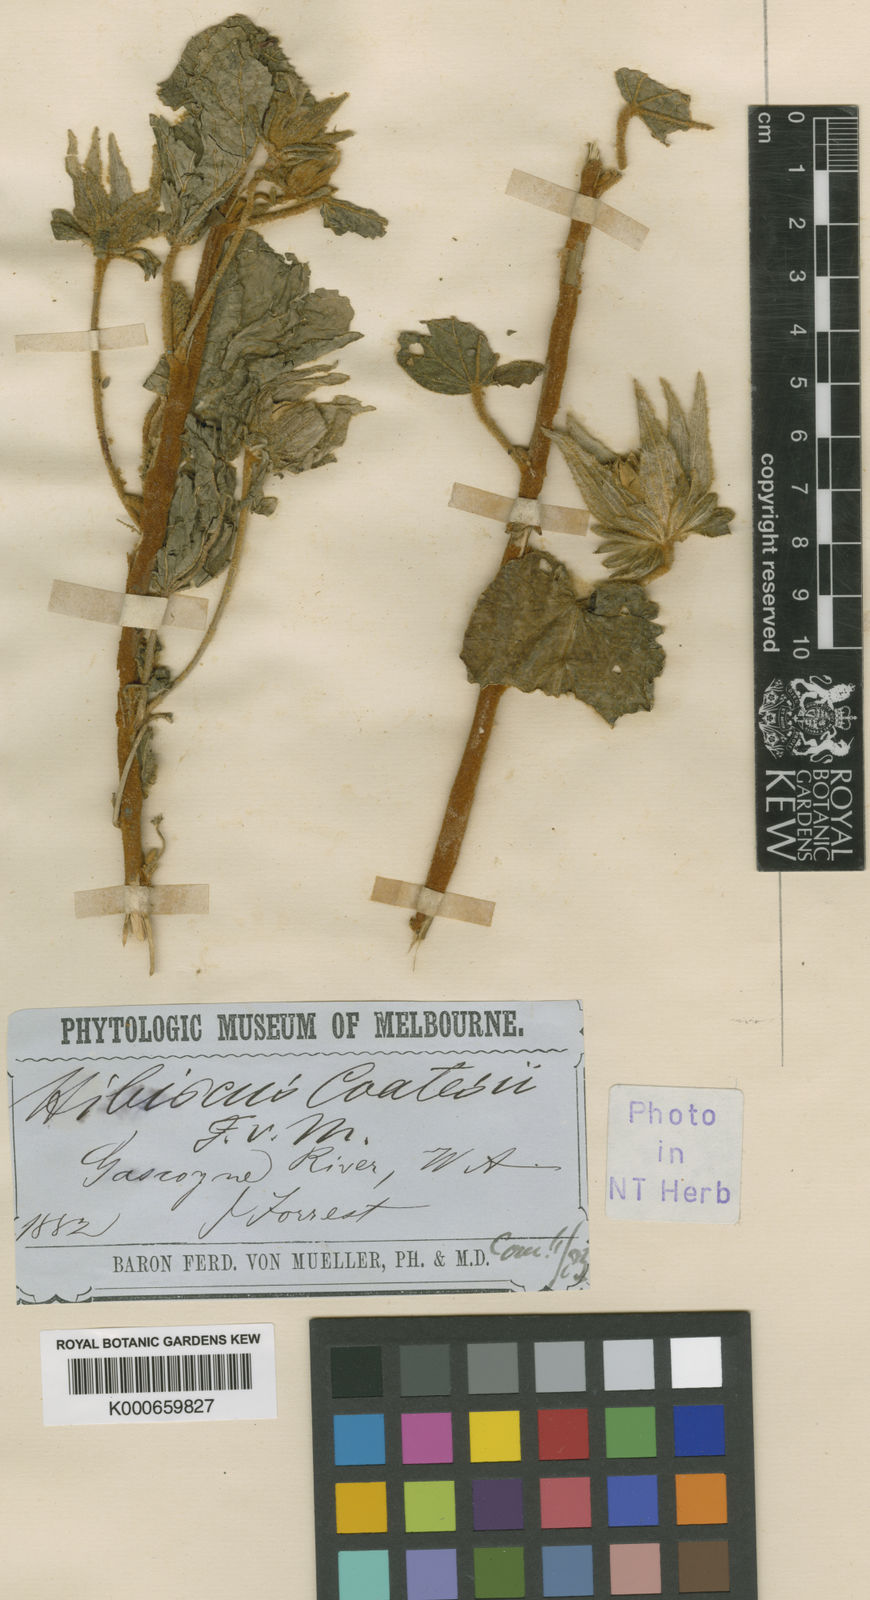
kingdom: Plantae
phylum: Tracheophyta
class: Magnoliopsida
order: Malvales
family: Malvaceae
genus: Hibiscus
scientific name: Hibiscus coatesii
